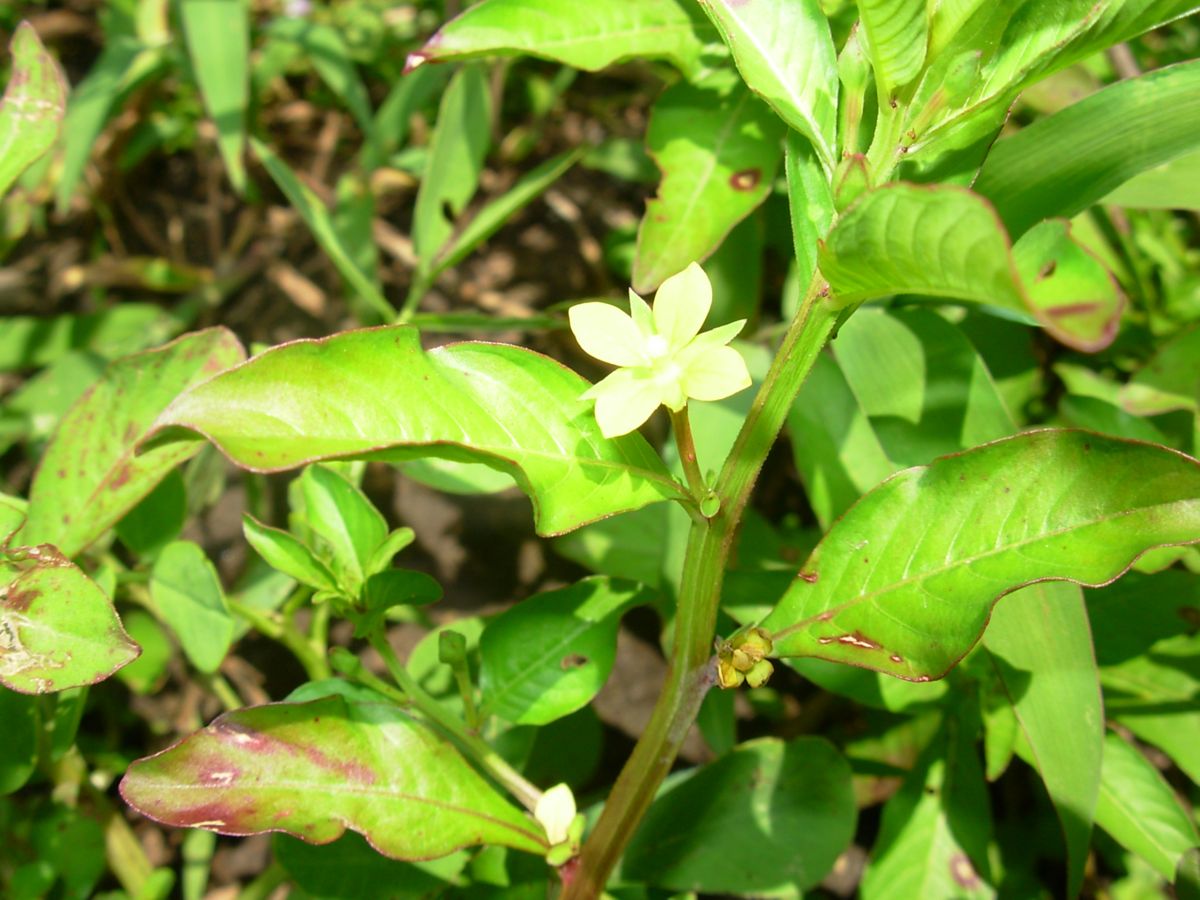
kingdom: Plantae
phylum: Tracheophyta
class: Magnoliopsida
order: Myrtales
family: Onagraceae
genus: Ludwigia
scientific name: Ludwigia
